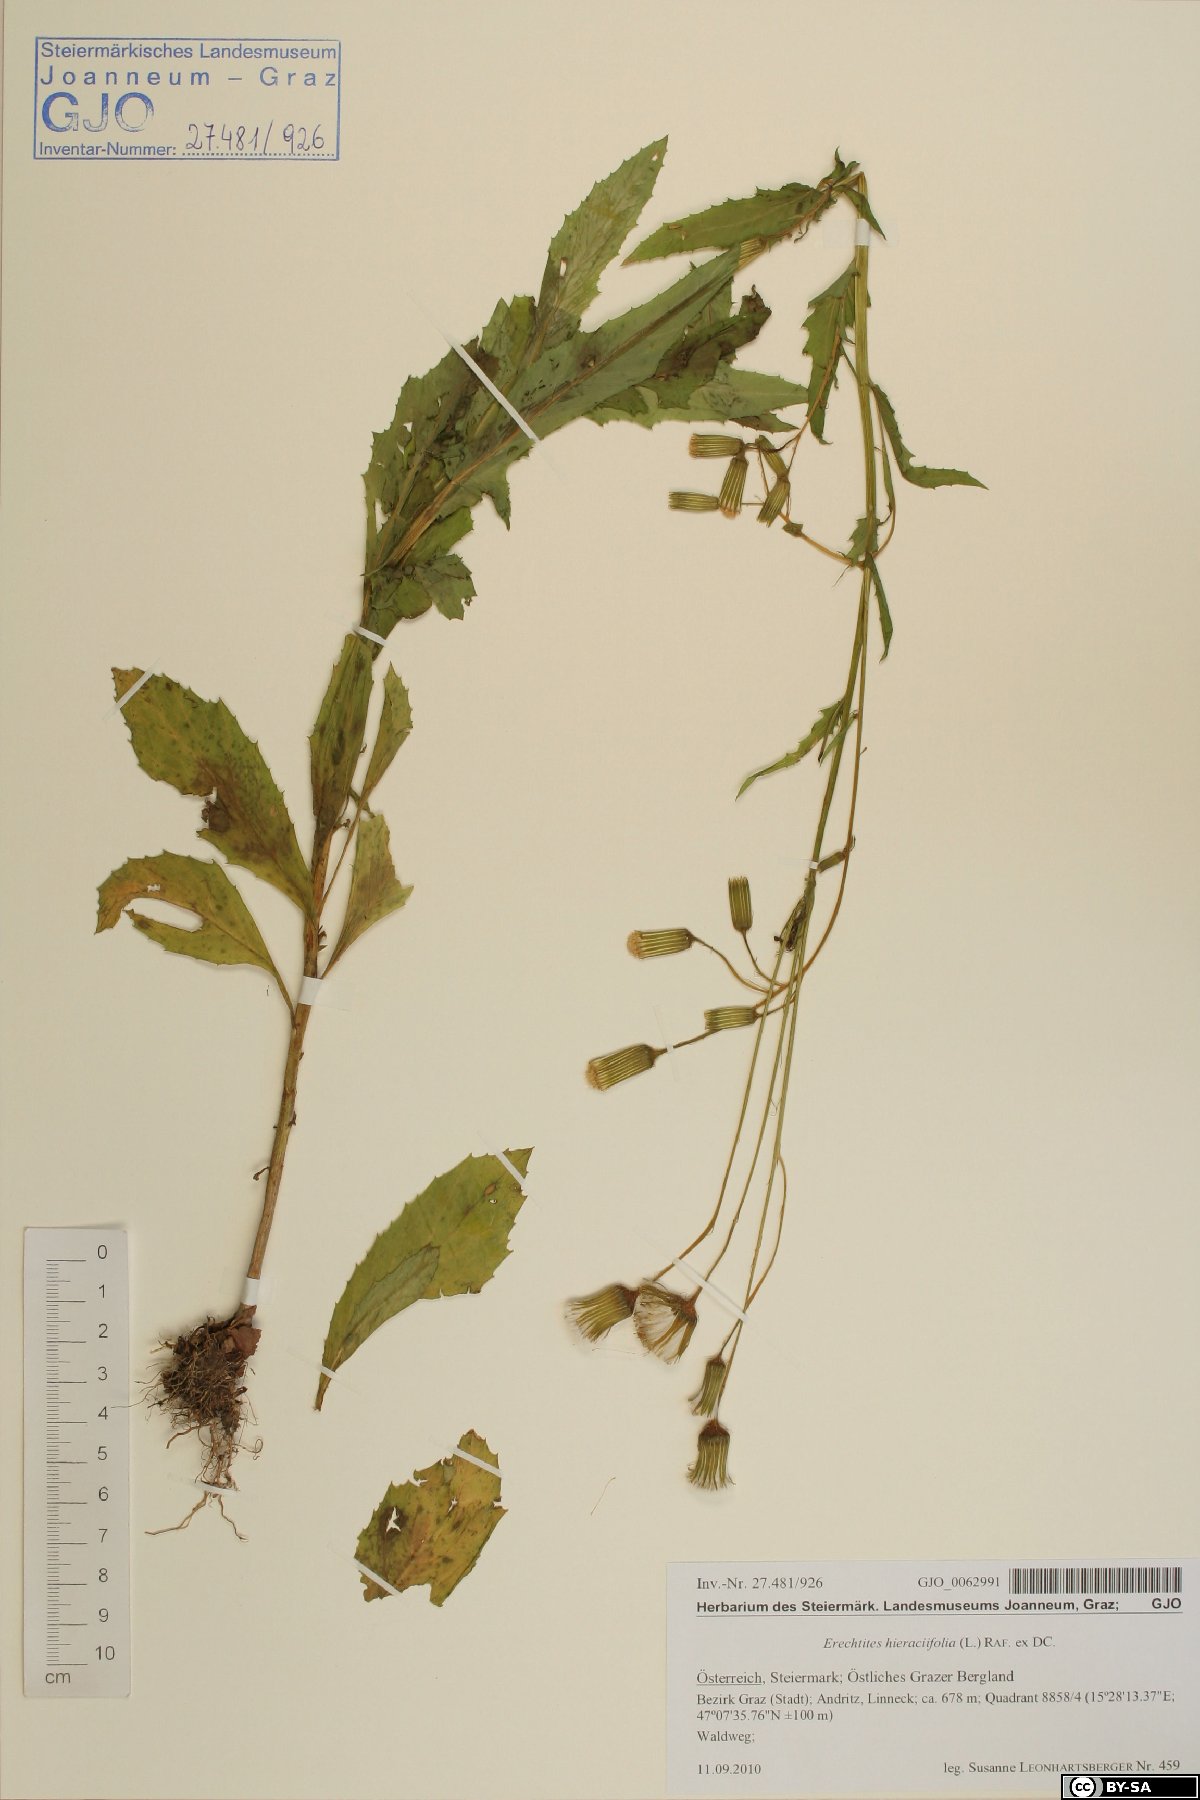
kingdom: Plantae
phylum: Tracheophyta
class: Magnoliopsida
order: Asterales
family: Asteraceae
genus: Erechtites
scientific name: Erechtites hieraciifolius
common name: American burnweed
